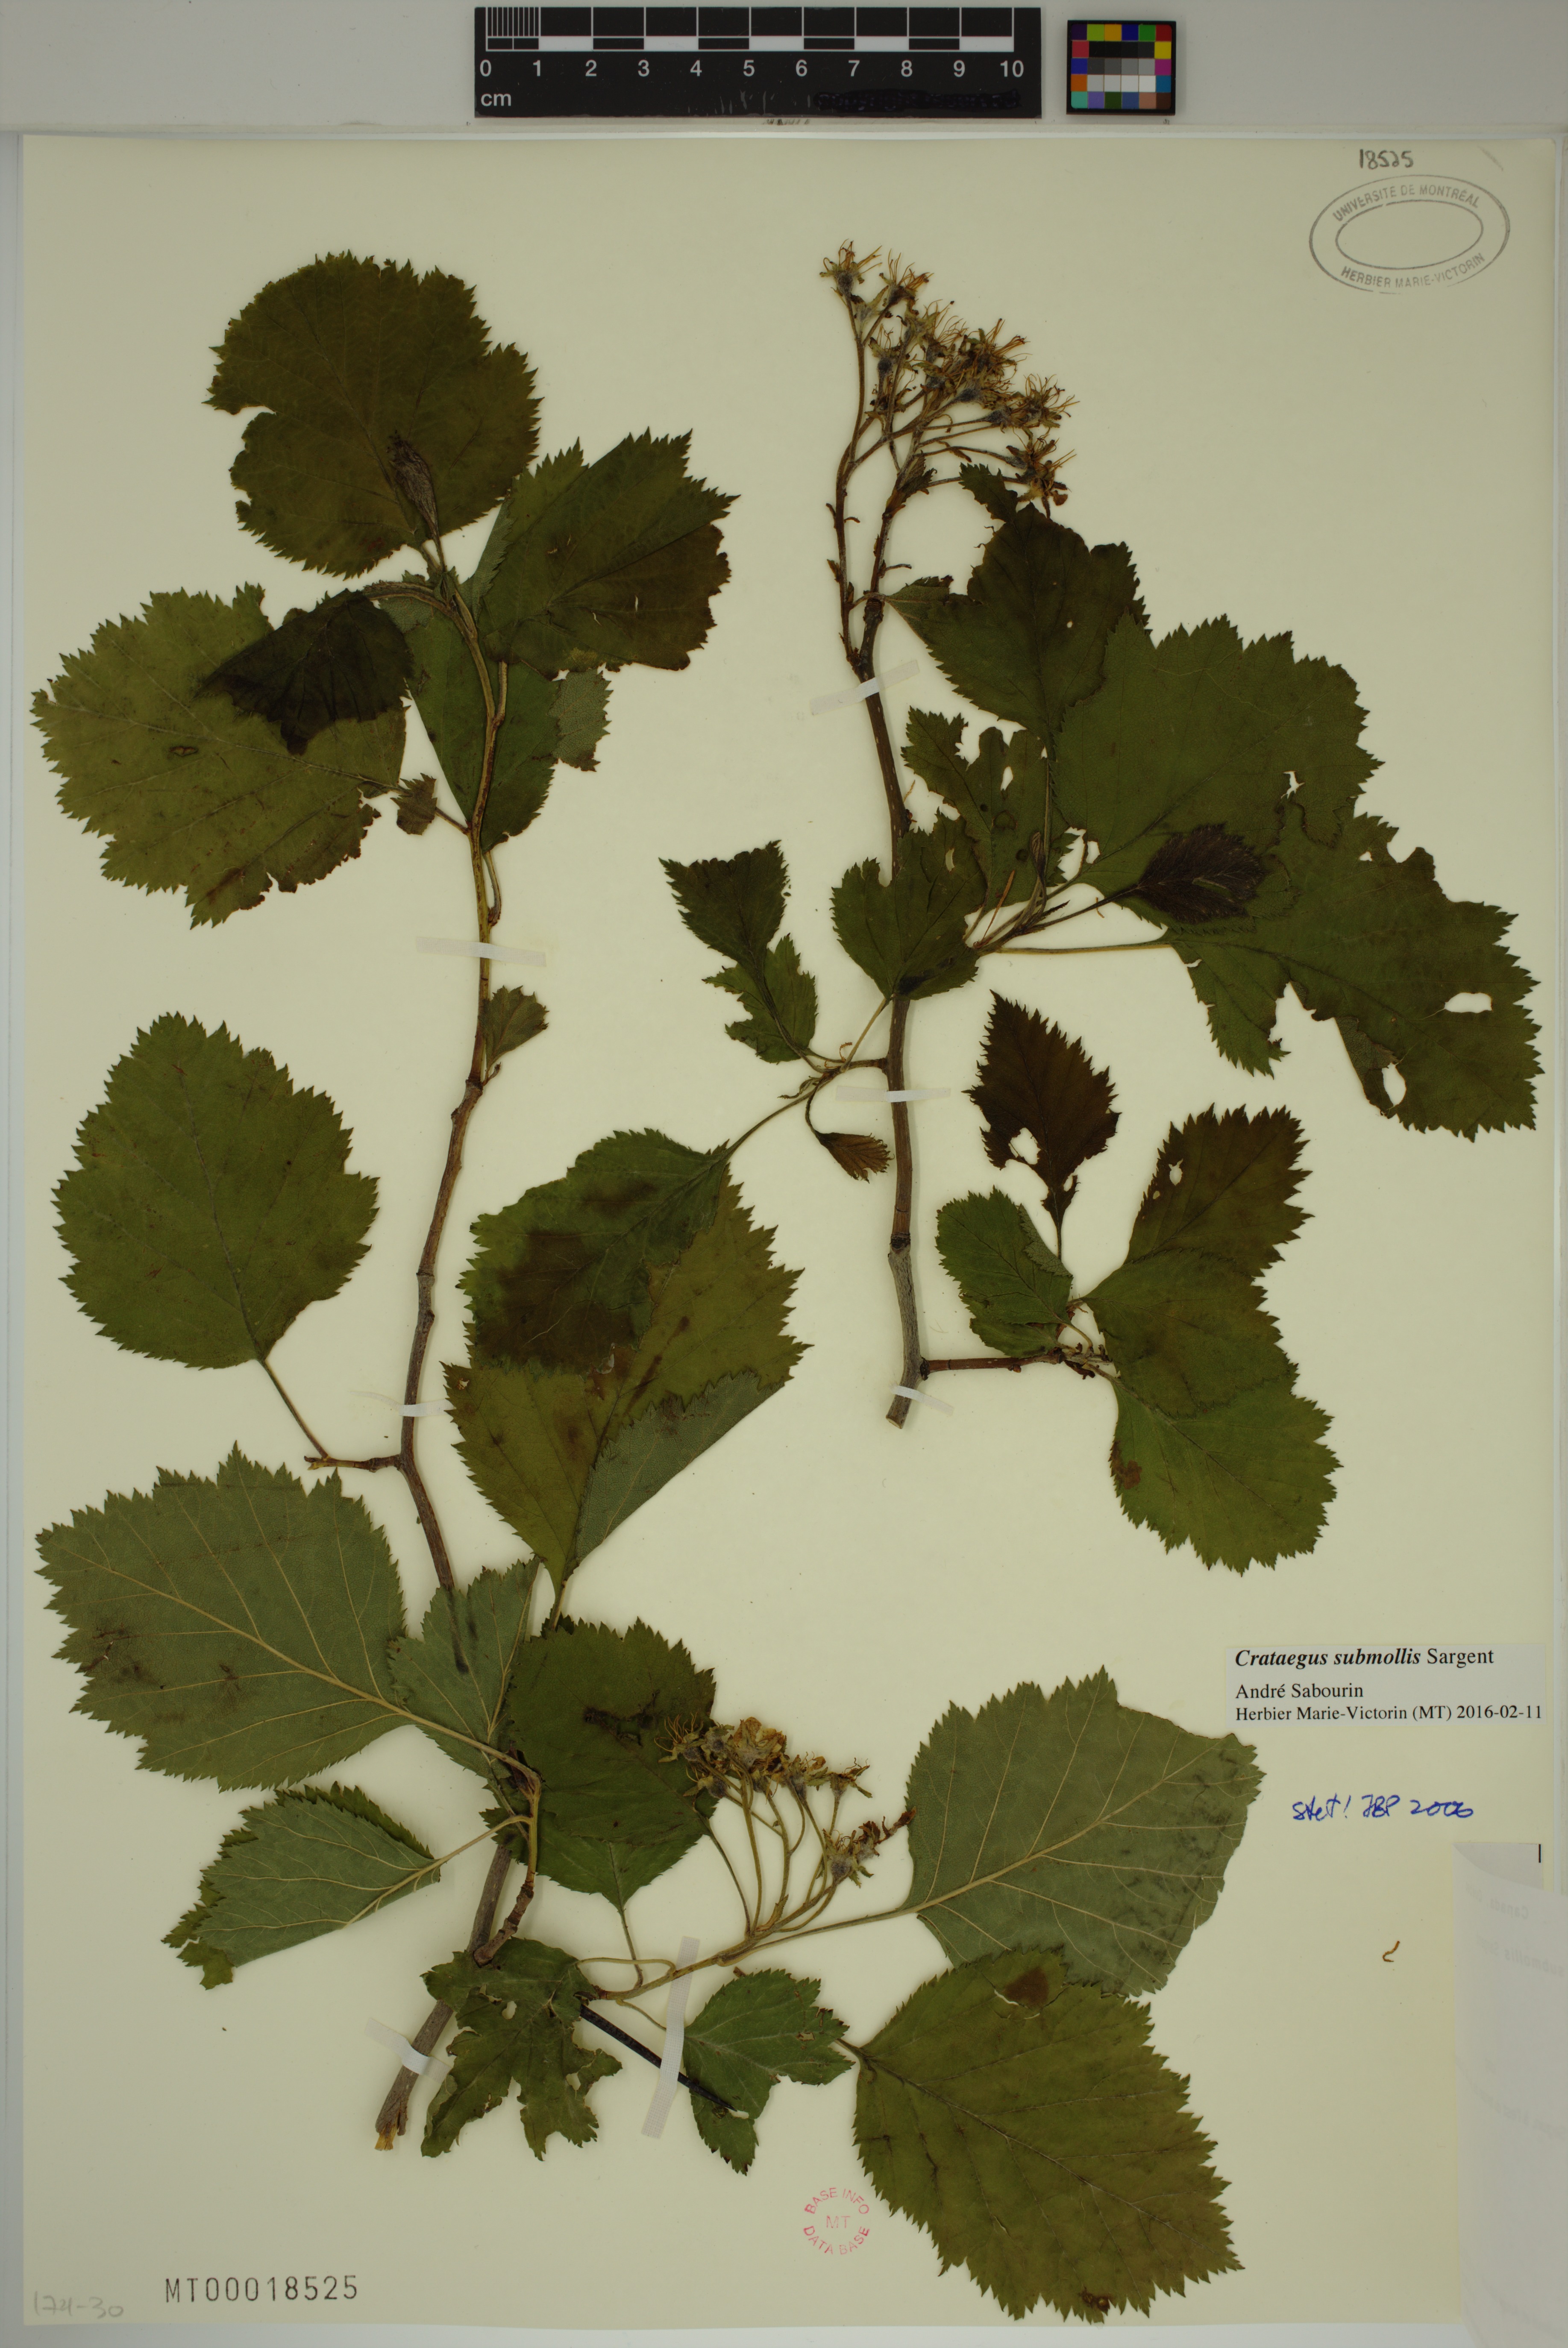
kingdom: Plantae
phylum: Tracheophyta
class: Magnoliopsida
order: Rosales
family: Rosaceae
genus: Crataegus
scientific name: Crataegus submollis
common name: Hairy cockspurthorn
